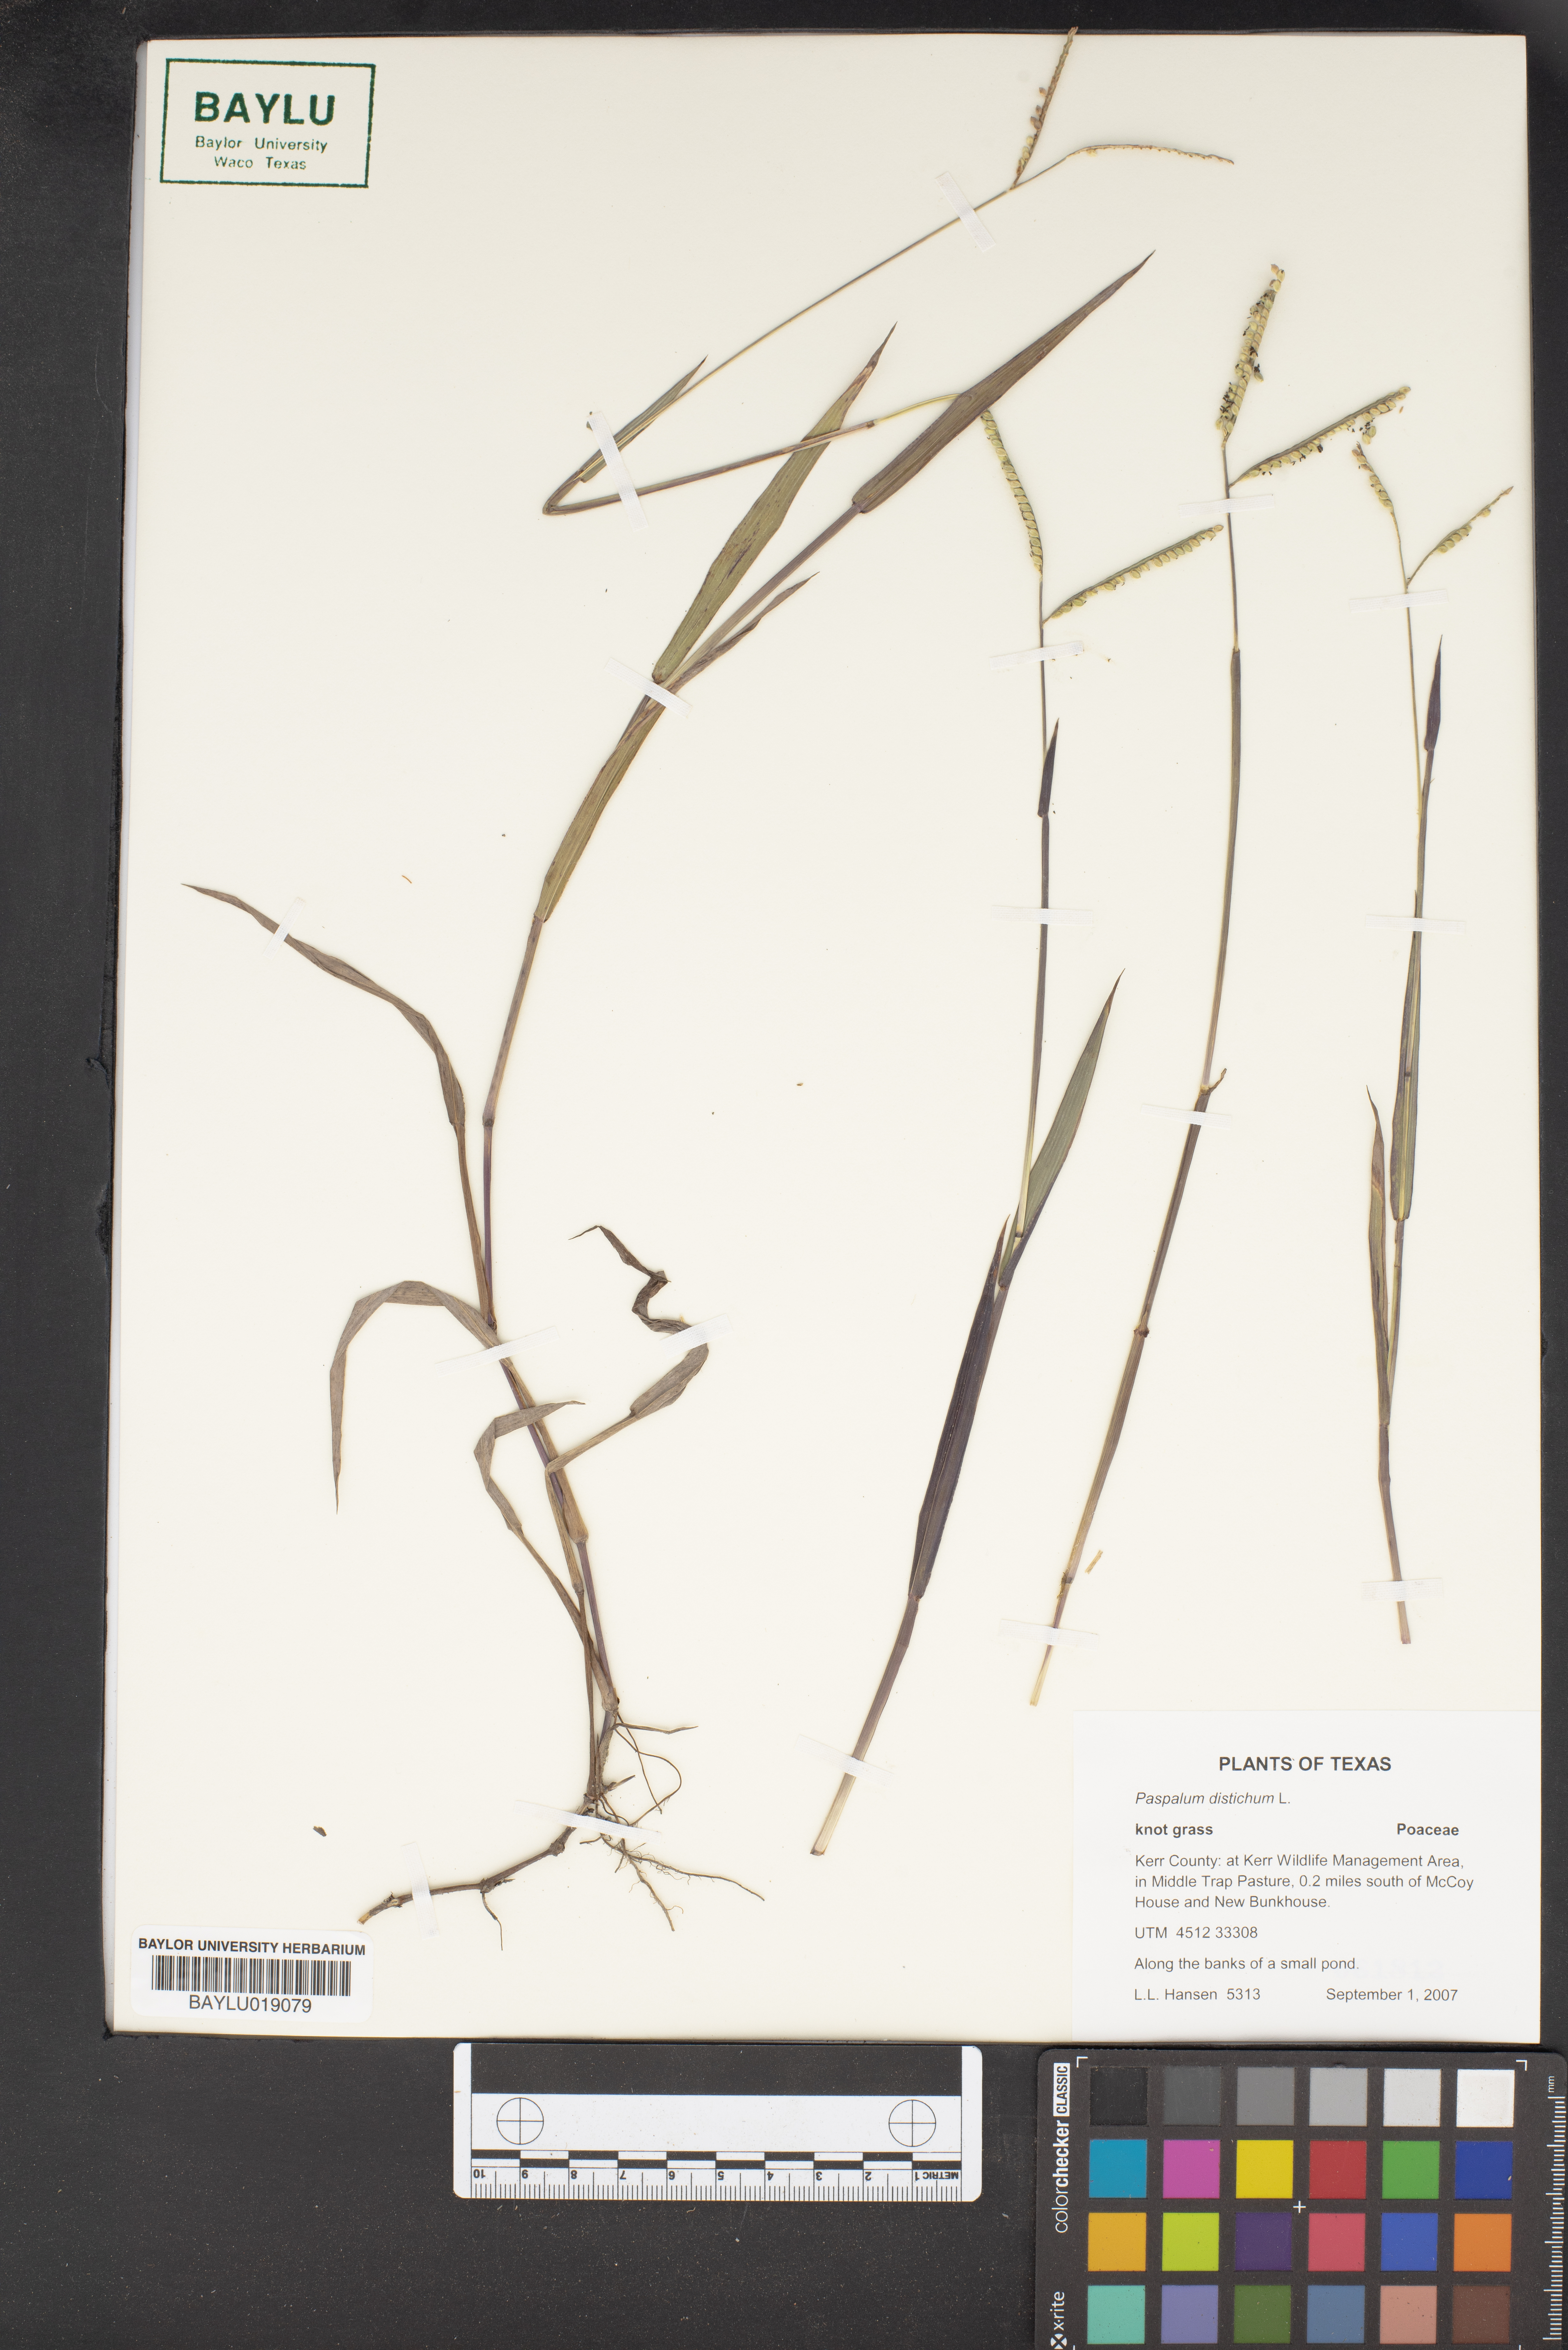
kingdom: Plantae
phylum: Tracheophyta
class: Liliopsida
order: Poales
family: Poaceae
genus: Paspalum
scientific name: Paspalum distichum
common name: Knotgrass
